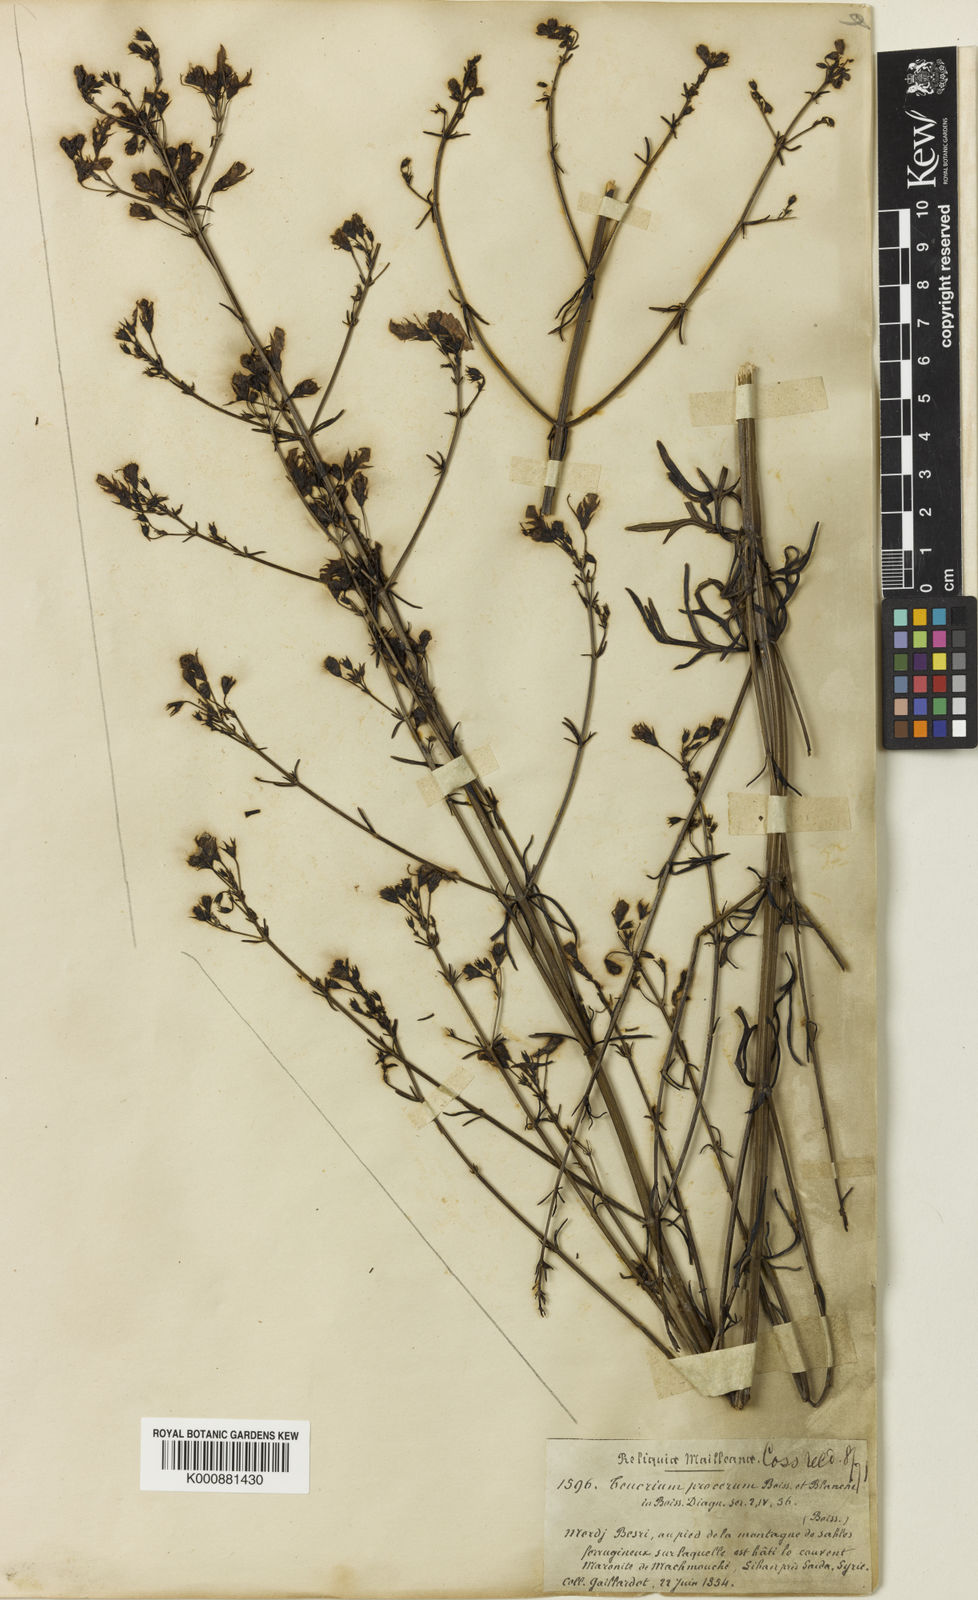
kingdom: Plantae
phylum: Tracheophyta
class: Magnoliopsida
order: Lamiales
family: Lamiaceae
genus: Teucrium
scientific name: Teucrium procerum
